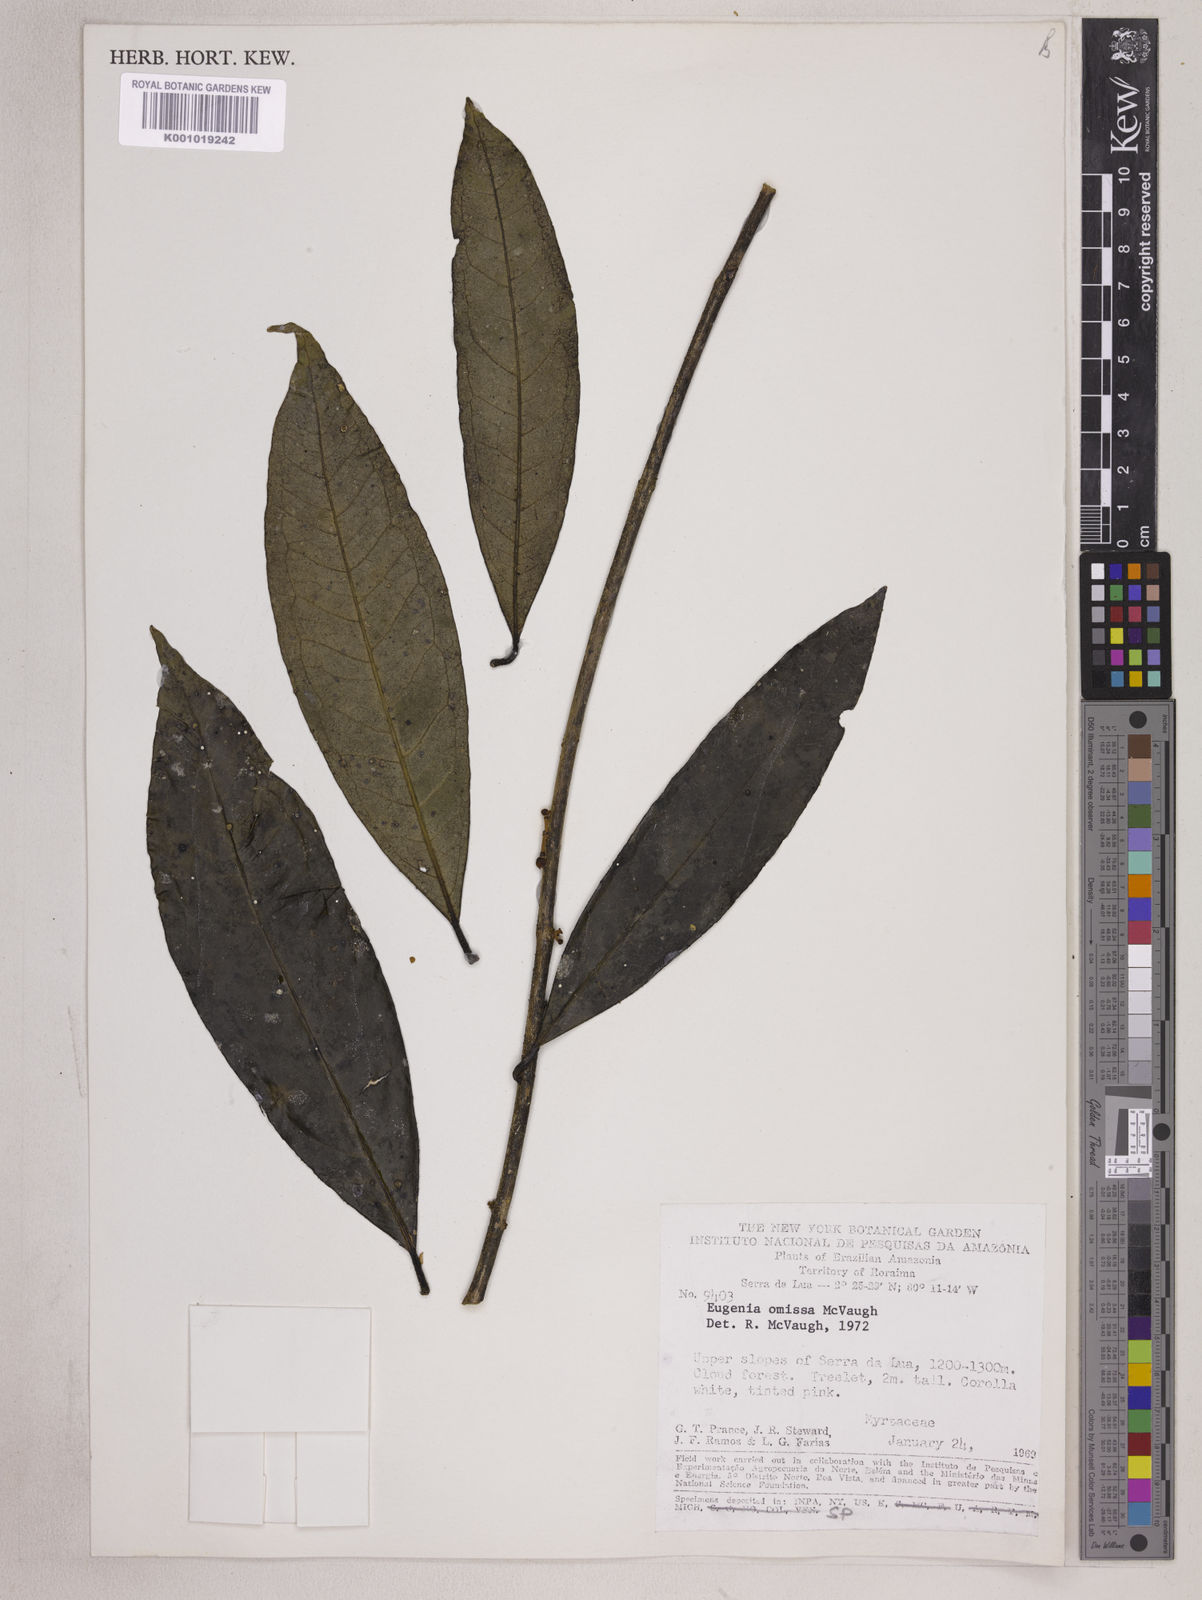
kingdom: Plantae
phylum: Tracheophyta
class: Magnoliopsida
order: Myrtales
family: Myrtaceae
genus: Eugenia
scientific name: Eugenia omissa
